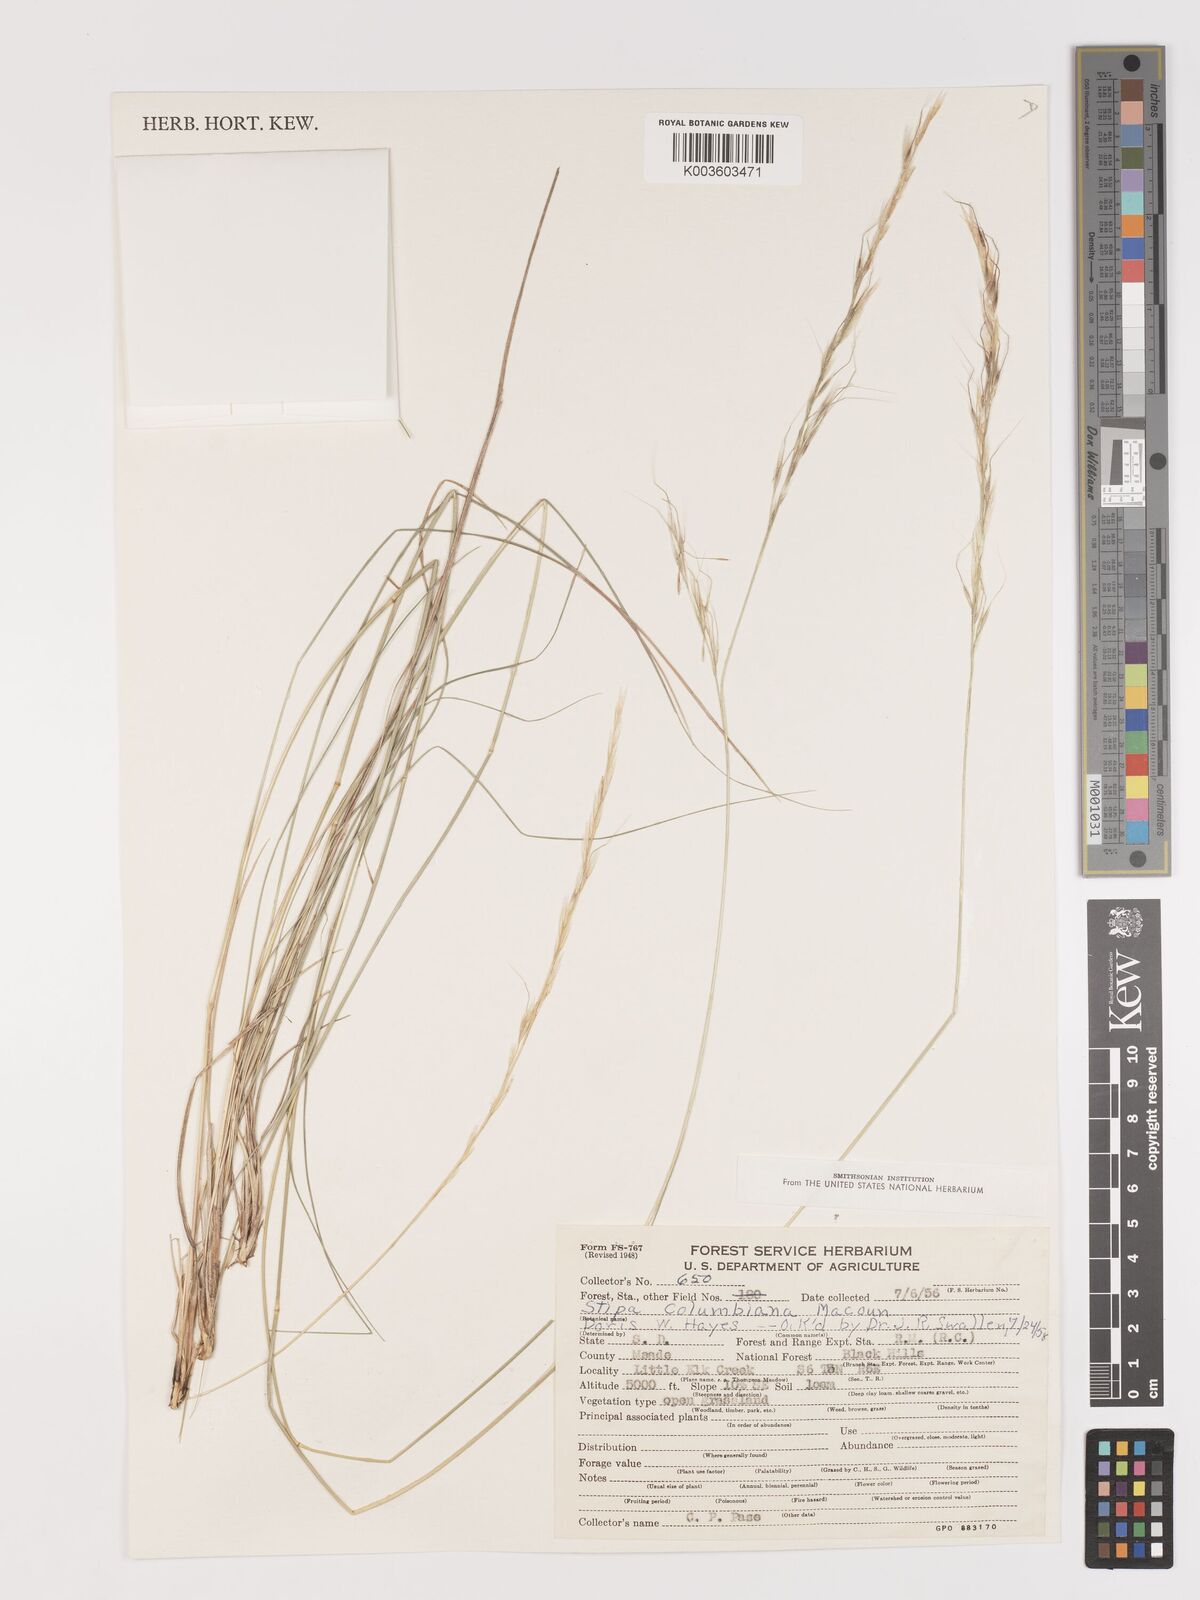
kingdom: Plantae
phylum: Tracheophyta
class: Liliopsida
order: Poales
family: Poaceae
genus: Eriocoma
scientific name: Eriocoma nelsonii
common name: Nelson's needlegrass
